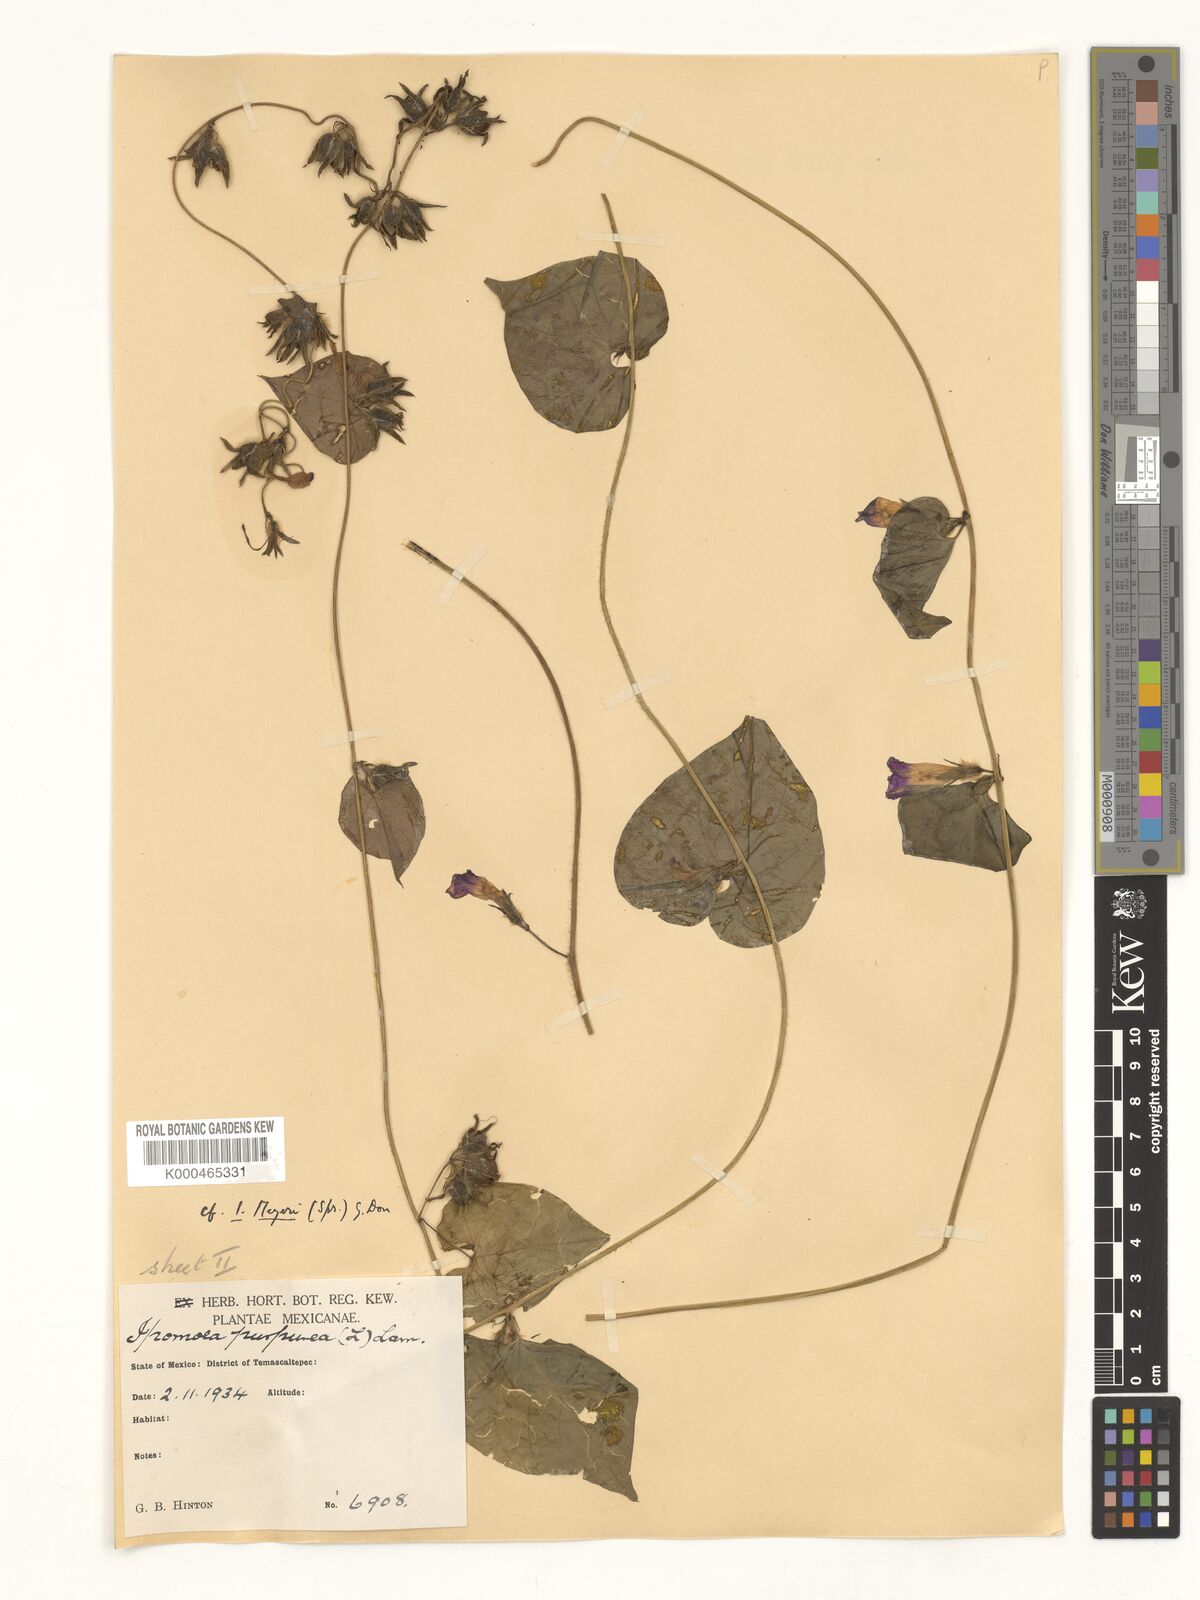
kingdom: Plantae
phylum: Tracheophyta
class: Magnoliopsida
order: Solanales
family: Convolvulaceae
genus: Ipomoea
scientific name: Ipomoea meyeri
